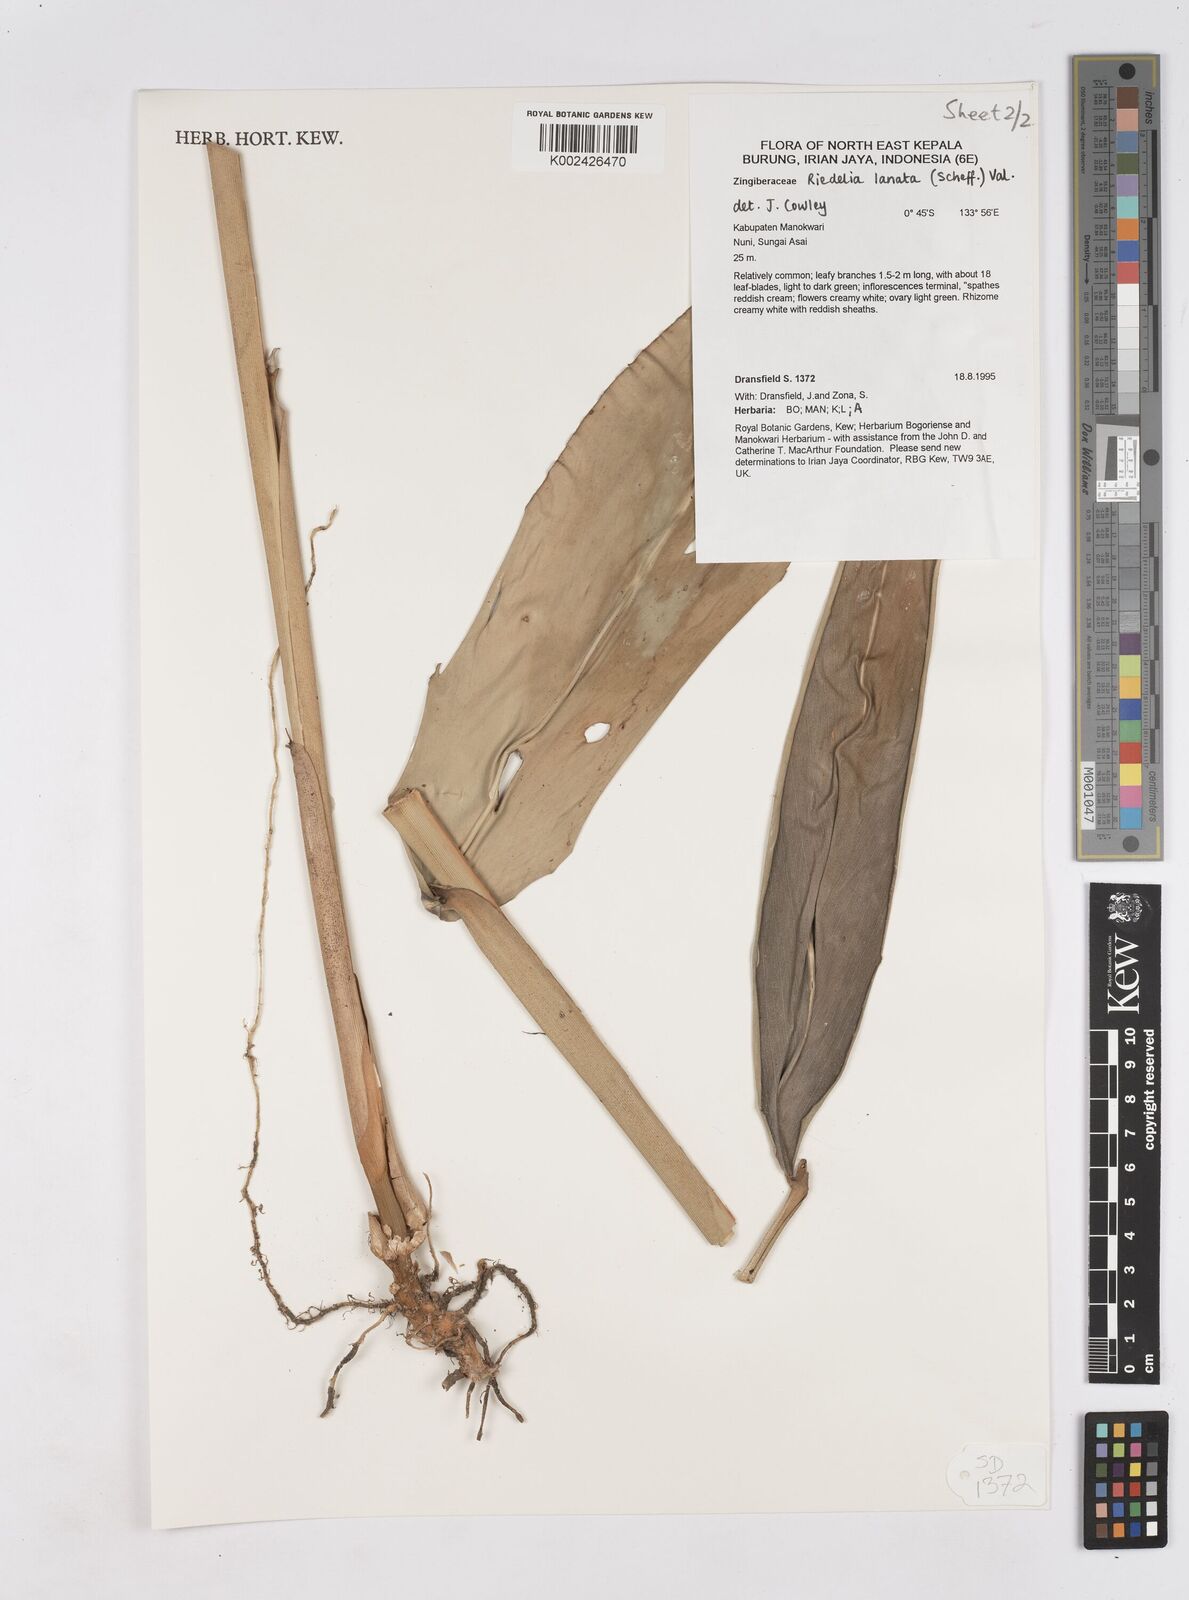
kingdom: Plantae
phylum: Tracheophyta
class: Liliopsida
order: Zingiberales
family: Zingiberaceae
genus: Riedelia
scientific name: Riedelia lanata
